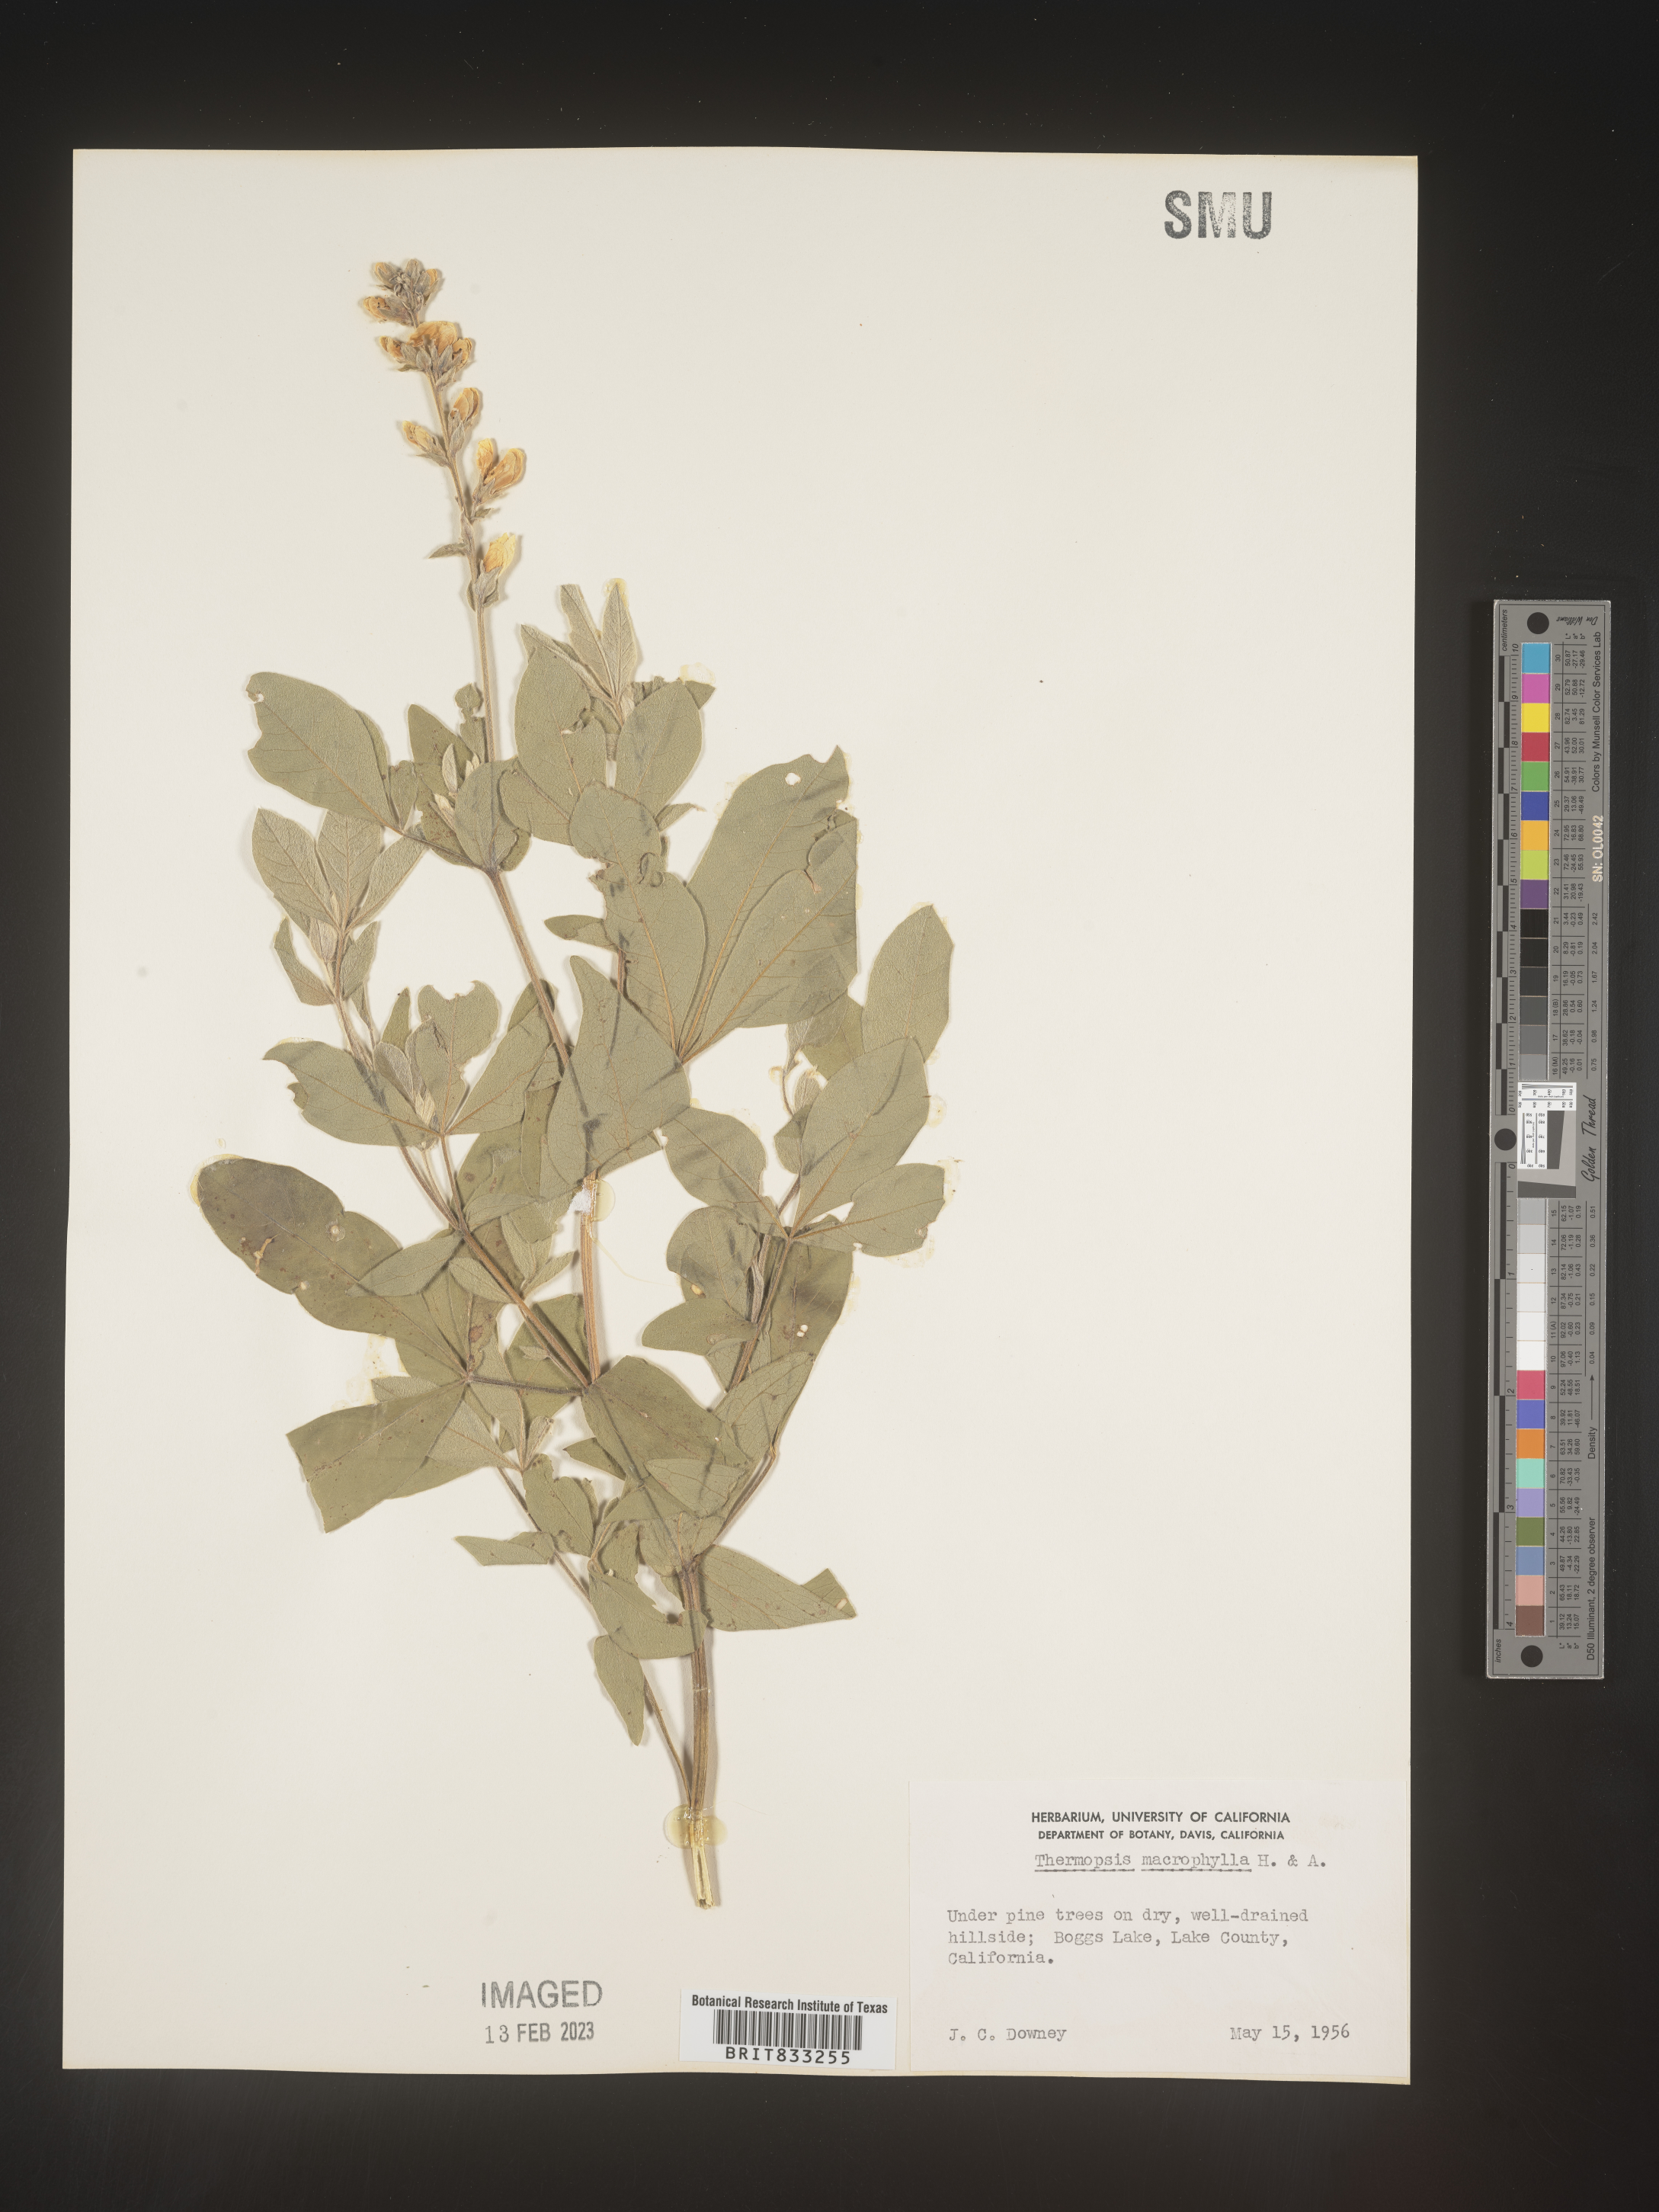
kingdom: Plantae
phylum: Tracheophyta
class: Magnoliopsida
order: Fabales
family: Fabaceae
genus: Thermopsis
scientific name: Thermopsis macrophylla
